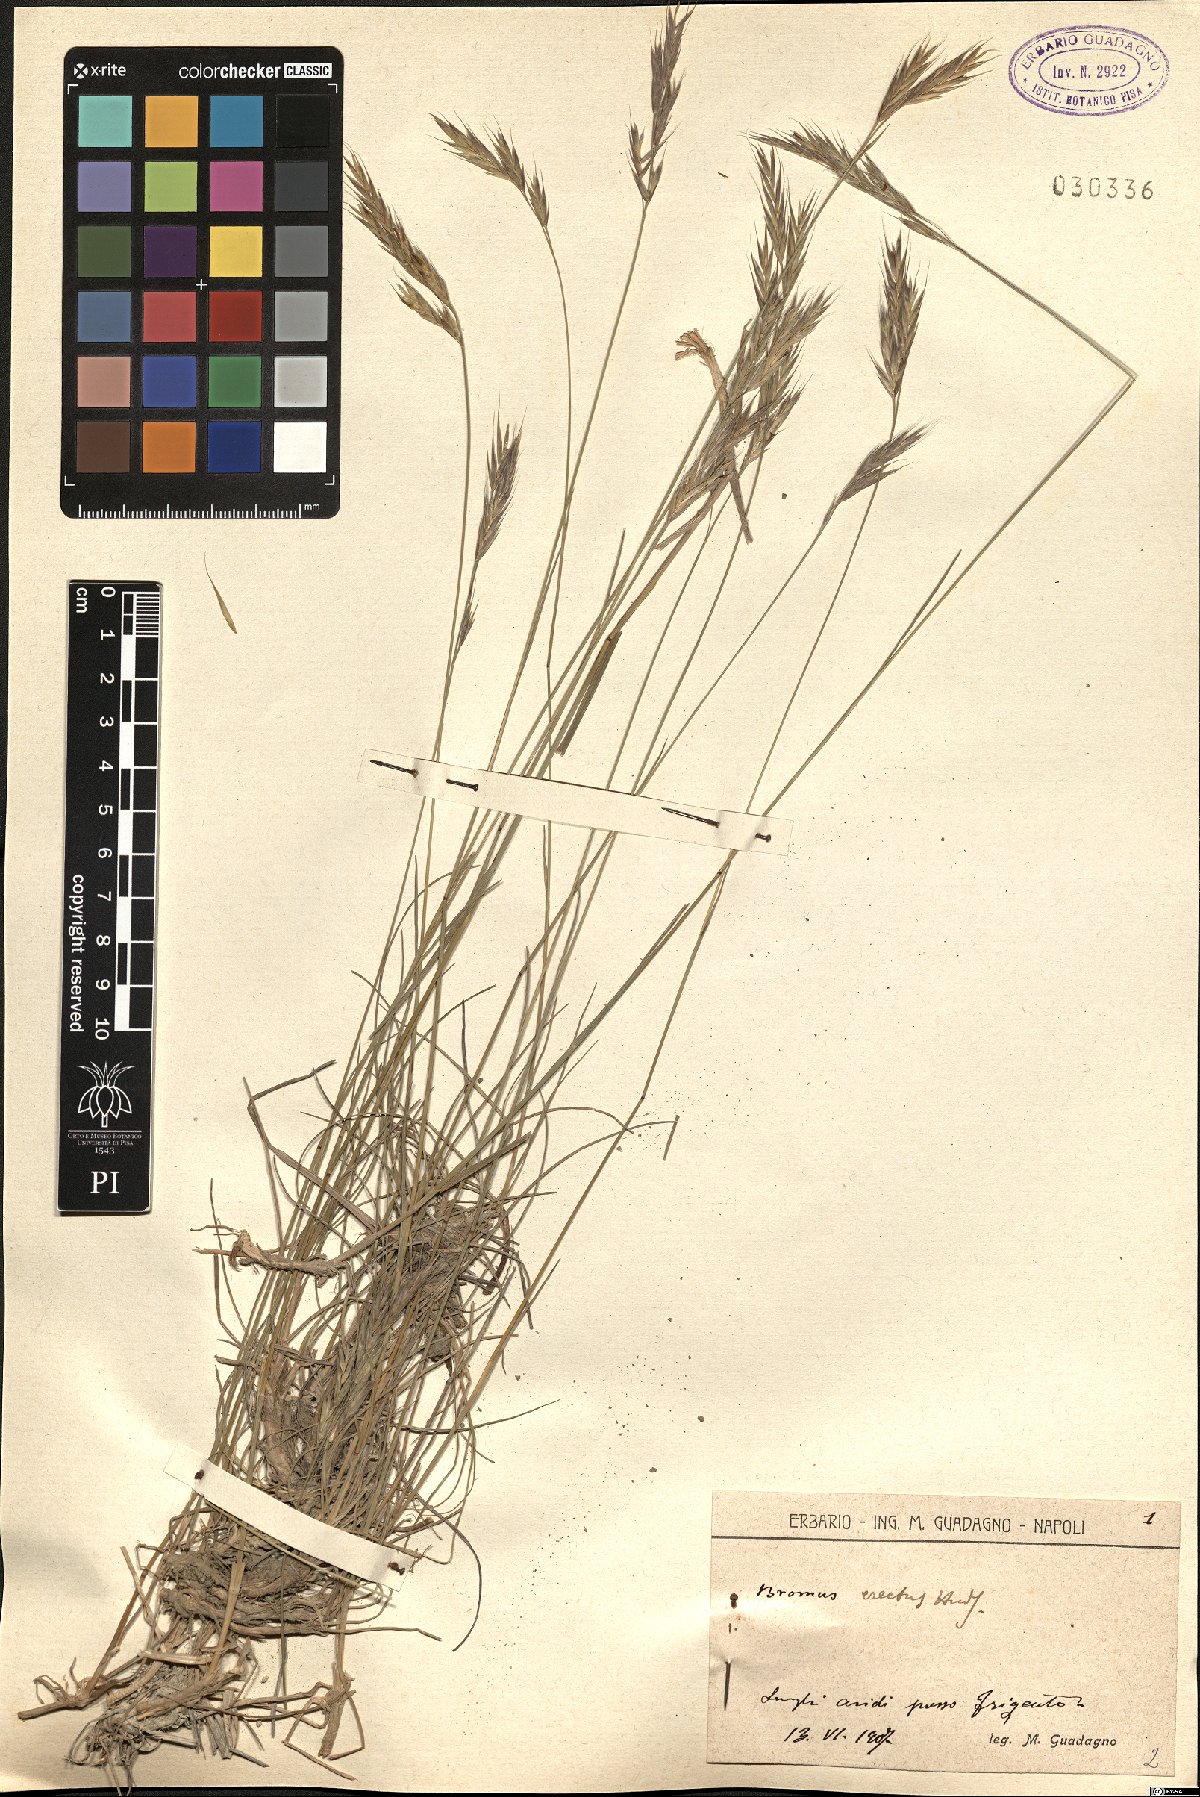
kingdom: Plantae
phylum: Tracheophyta
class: Liliopsida
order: Poales
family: Poaceae
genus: Bromus
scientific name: Bromus erectus
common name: Erect brome
